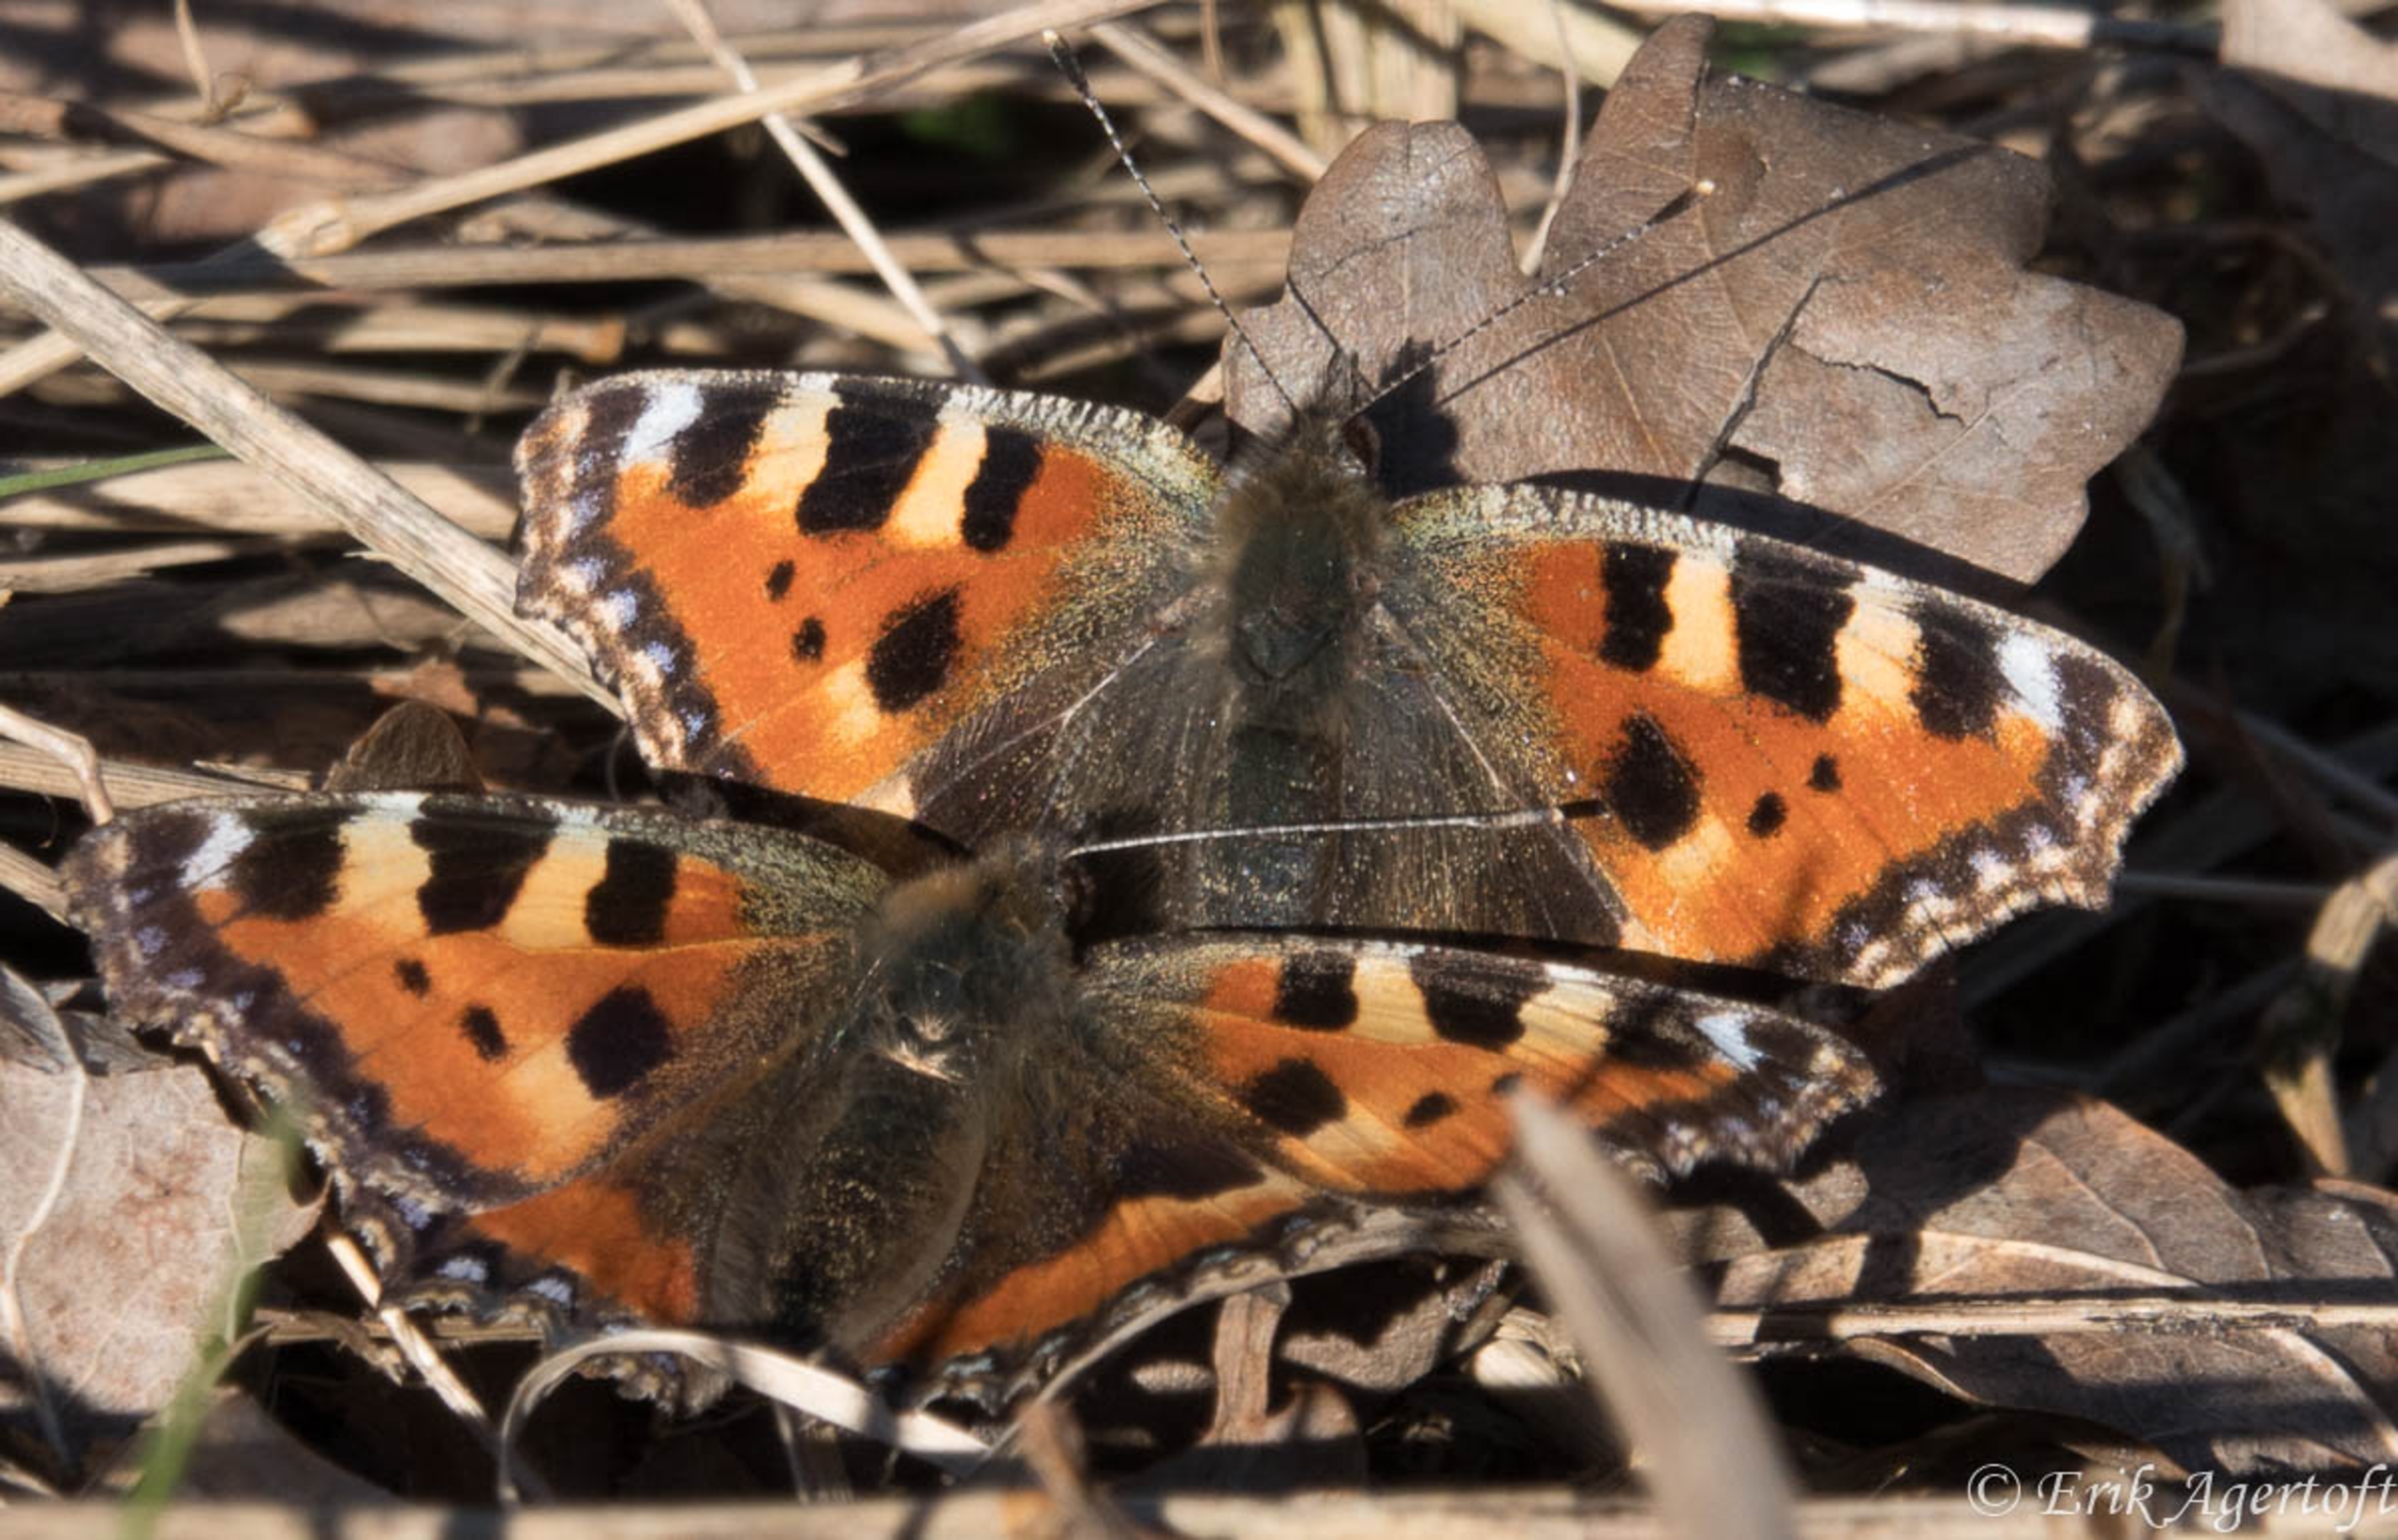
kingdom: Animalia
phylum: Arthropoda
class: Insecta
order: Lepidoptera
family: Nymphalidae
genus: Aglais
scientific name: Aglais urticae
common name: Nældens takvinge
